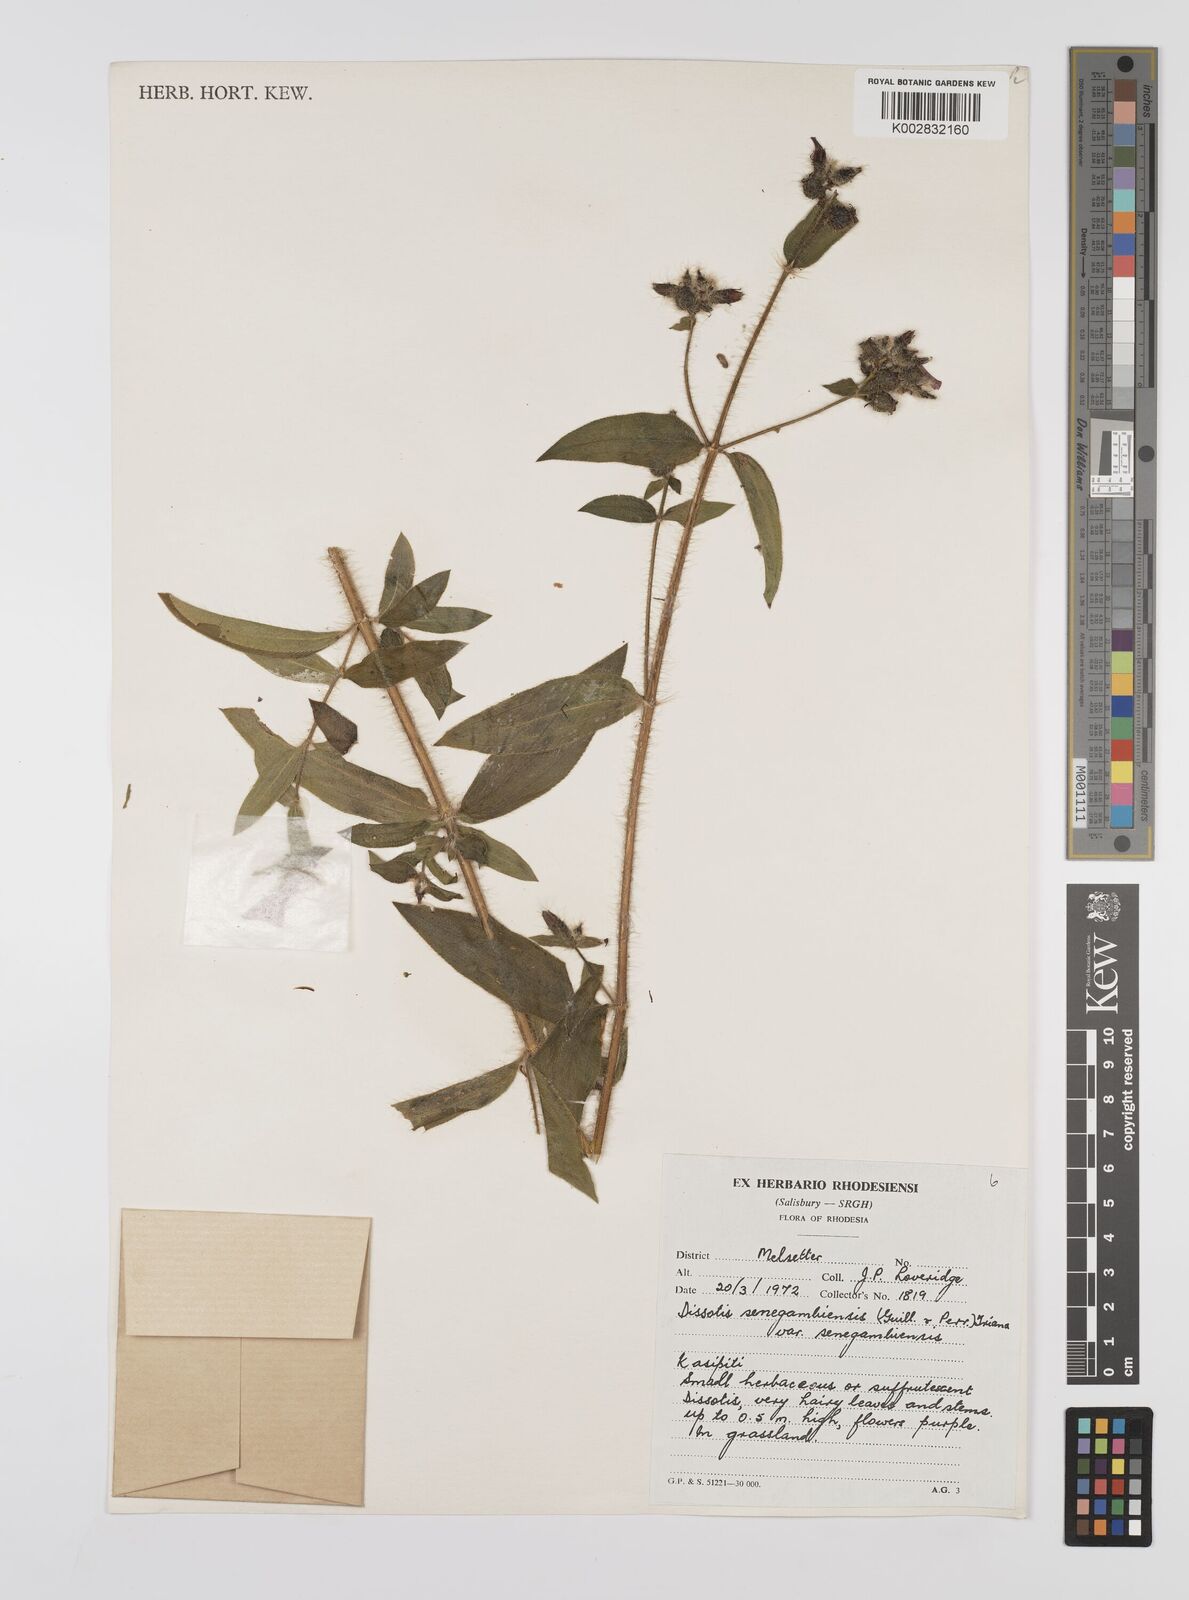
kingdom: Plantae
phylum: Tracheophyta
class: Magnoliopsida
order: Myrtales
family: Melastomataceae
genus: Nerophila
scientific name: Nerophila senegambiensis
